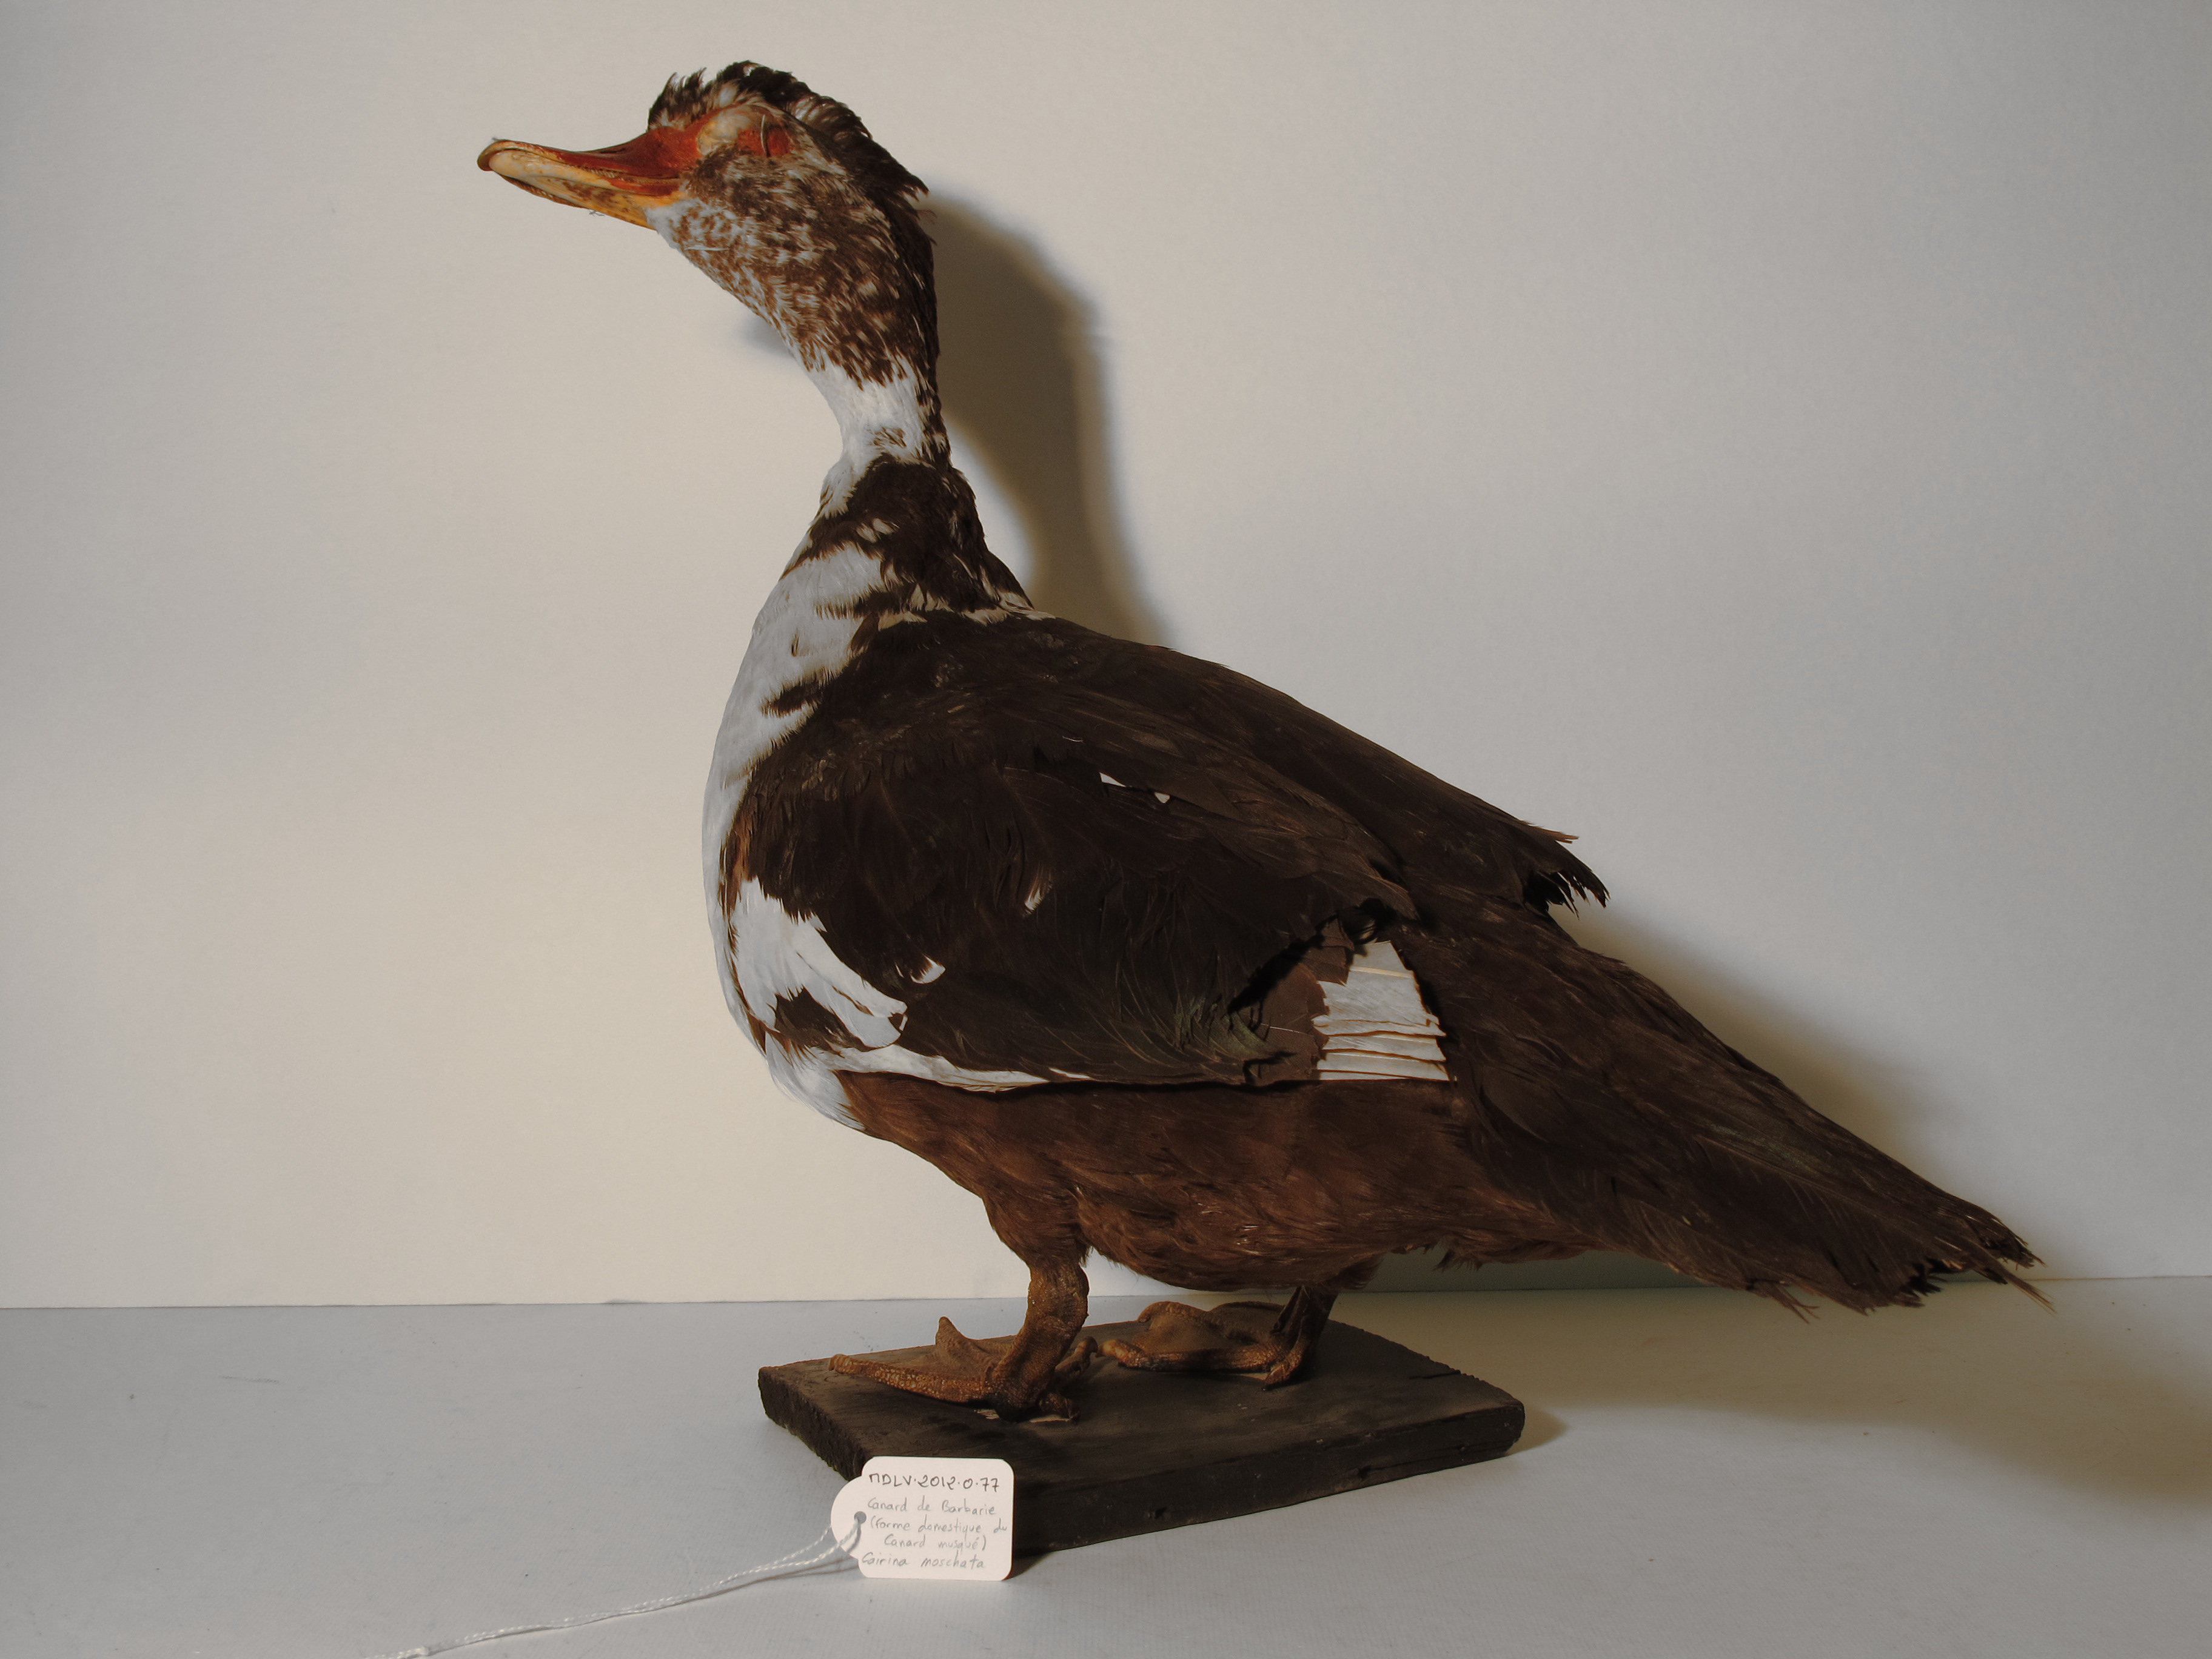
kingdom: Animalia
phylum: Chordata
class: Aves
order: Anseriformes
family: Anatidae
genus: Cairina
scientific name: Cairina moschata
